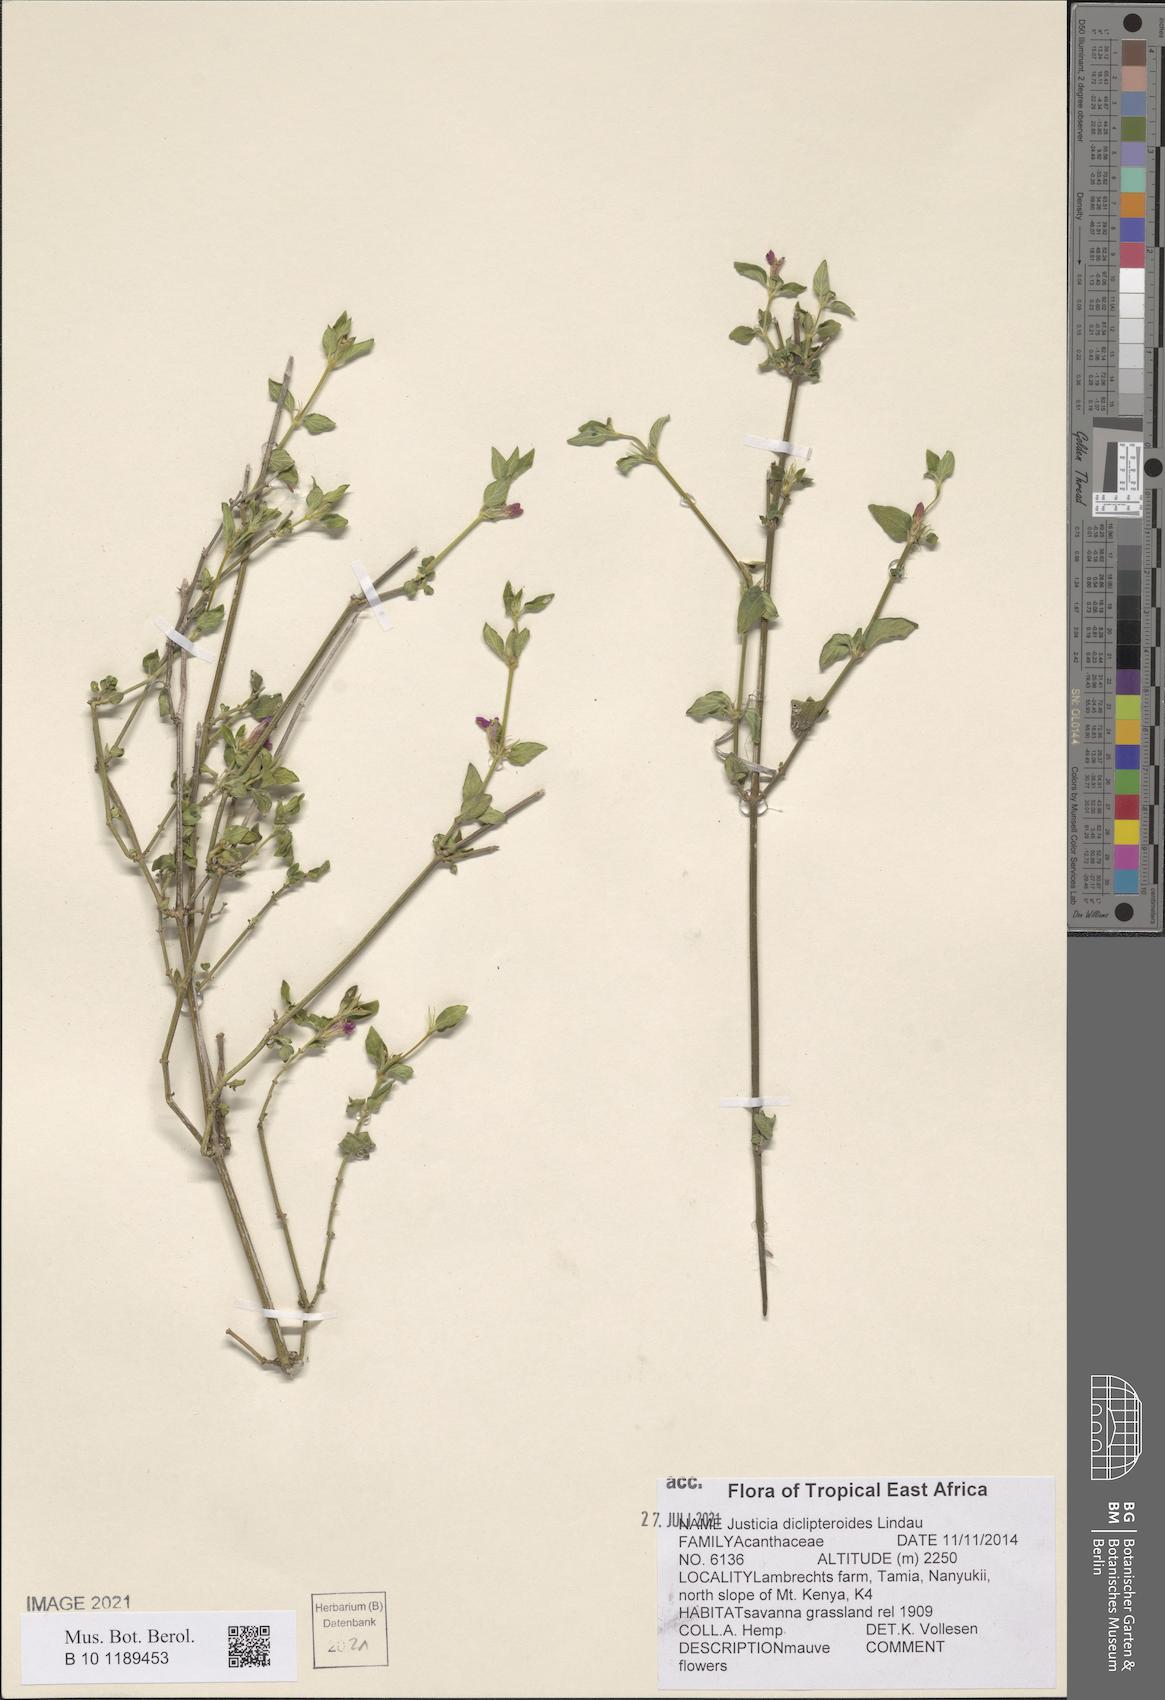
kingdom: Plantae
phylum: Tracheophyta
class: Magnoliopsida
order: Lamiales
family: Acanthaceae
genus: Justicia
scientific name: Justicia diclipteroides
